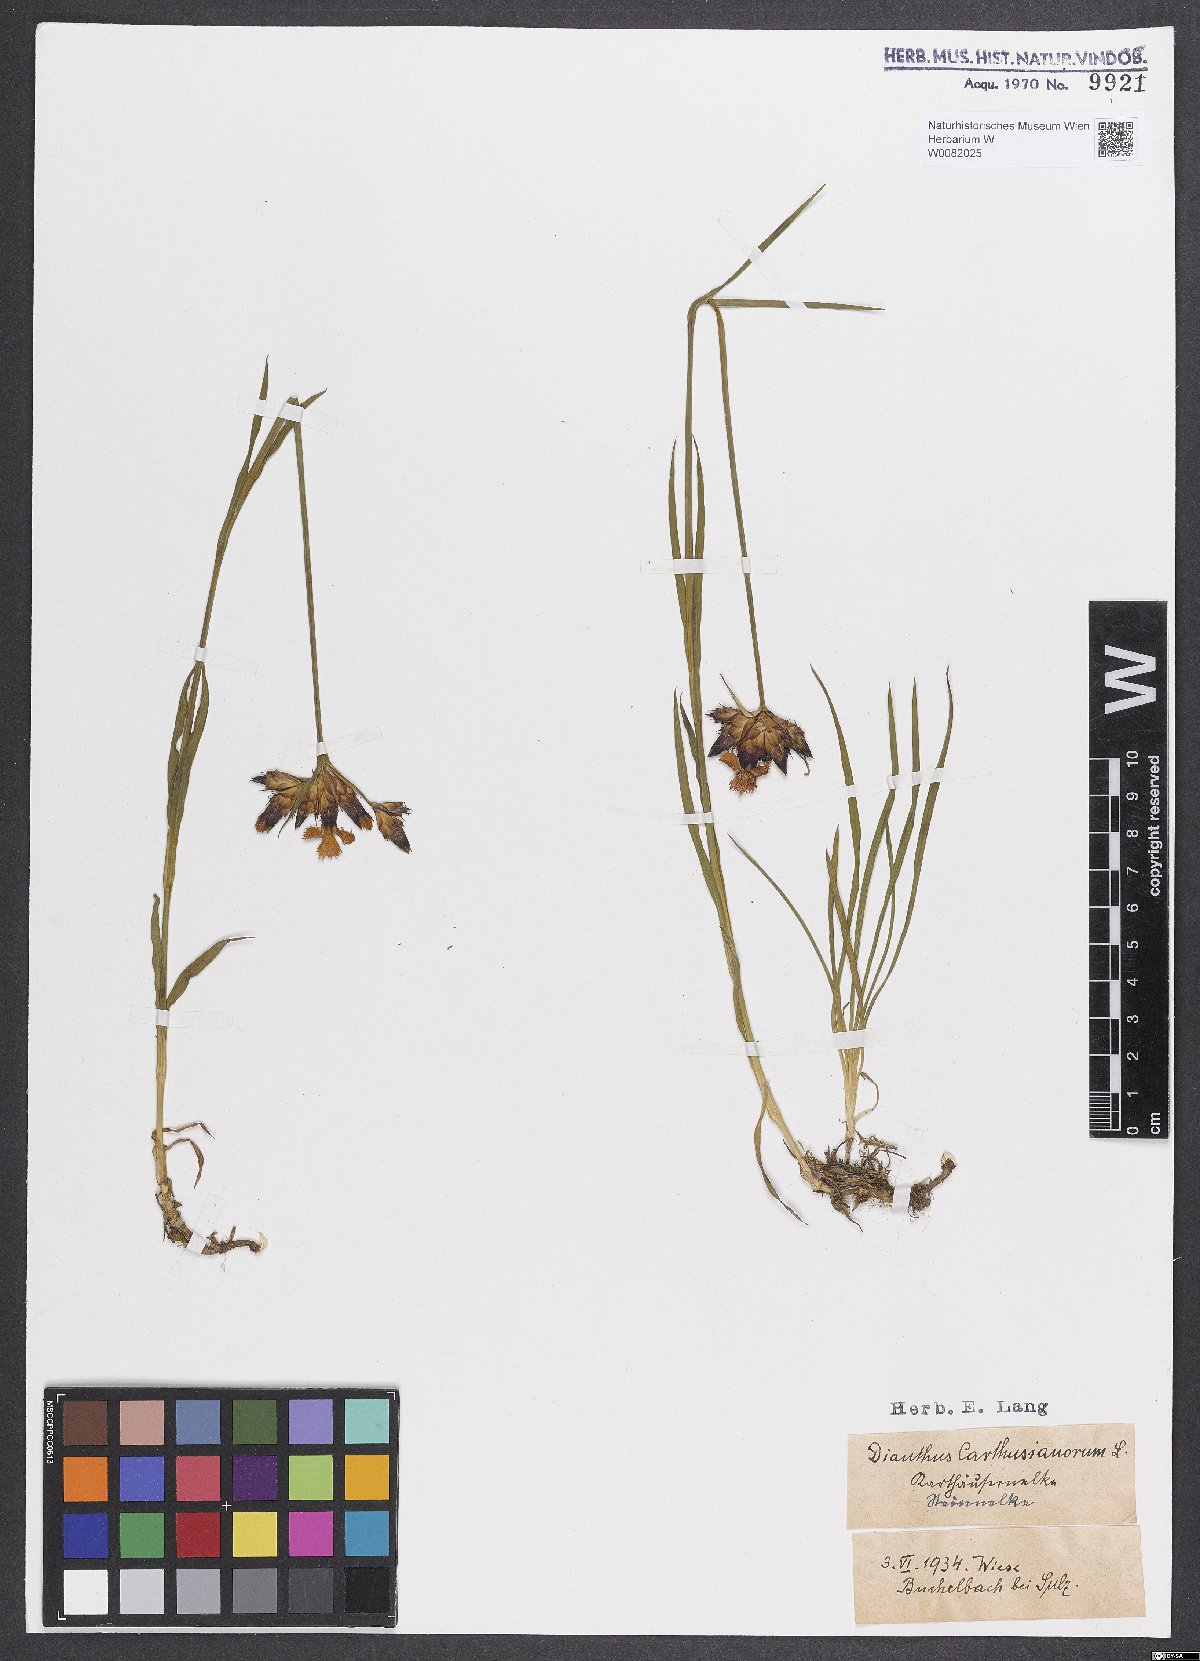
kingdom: Plantae
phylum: Tracheophyta
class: Magnoliopsida
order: Caryophyllales
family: Caryophyllaceae
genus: Dianthus
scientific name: Dianthus carthusianorum
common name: Carthusian pink
